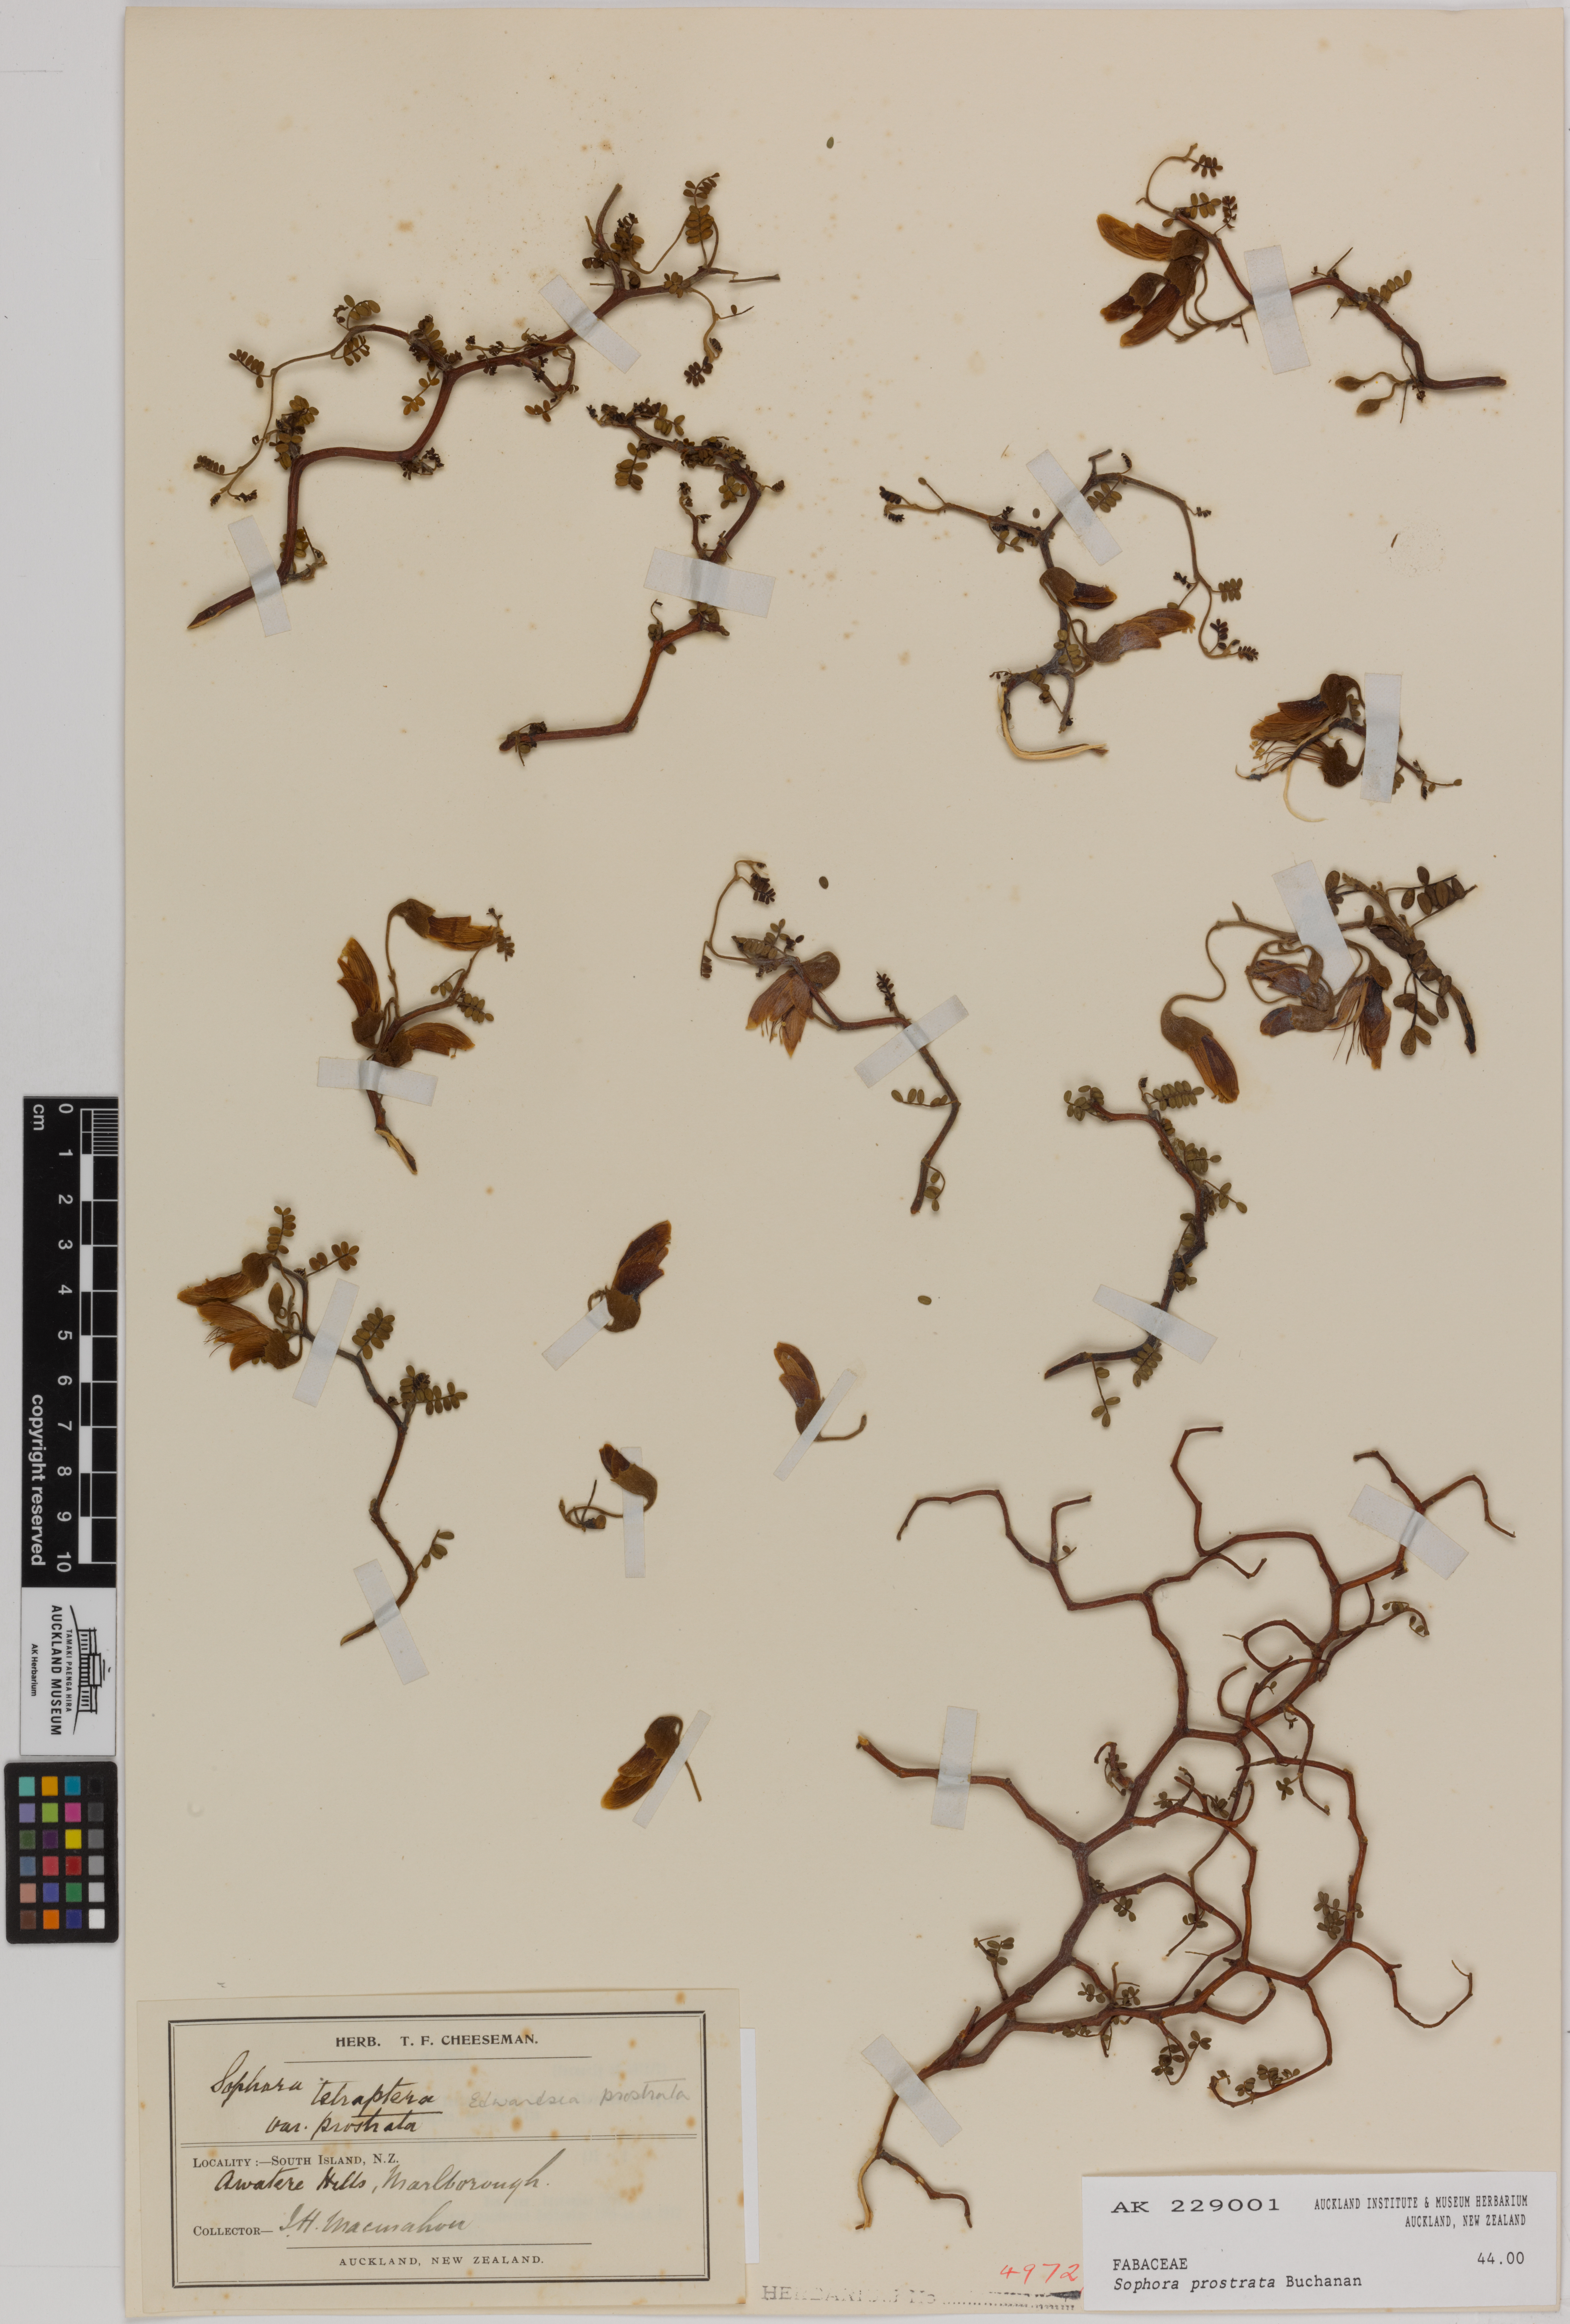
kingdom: Plantae
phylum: Tracheophyta
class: Magnoliopsida
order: Fabales
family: Fabaceae
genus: Sophora
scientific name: Sophora prostrata
